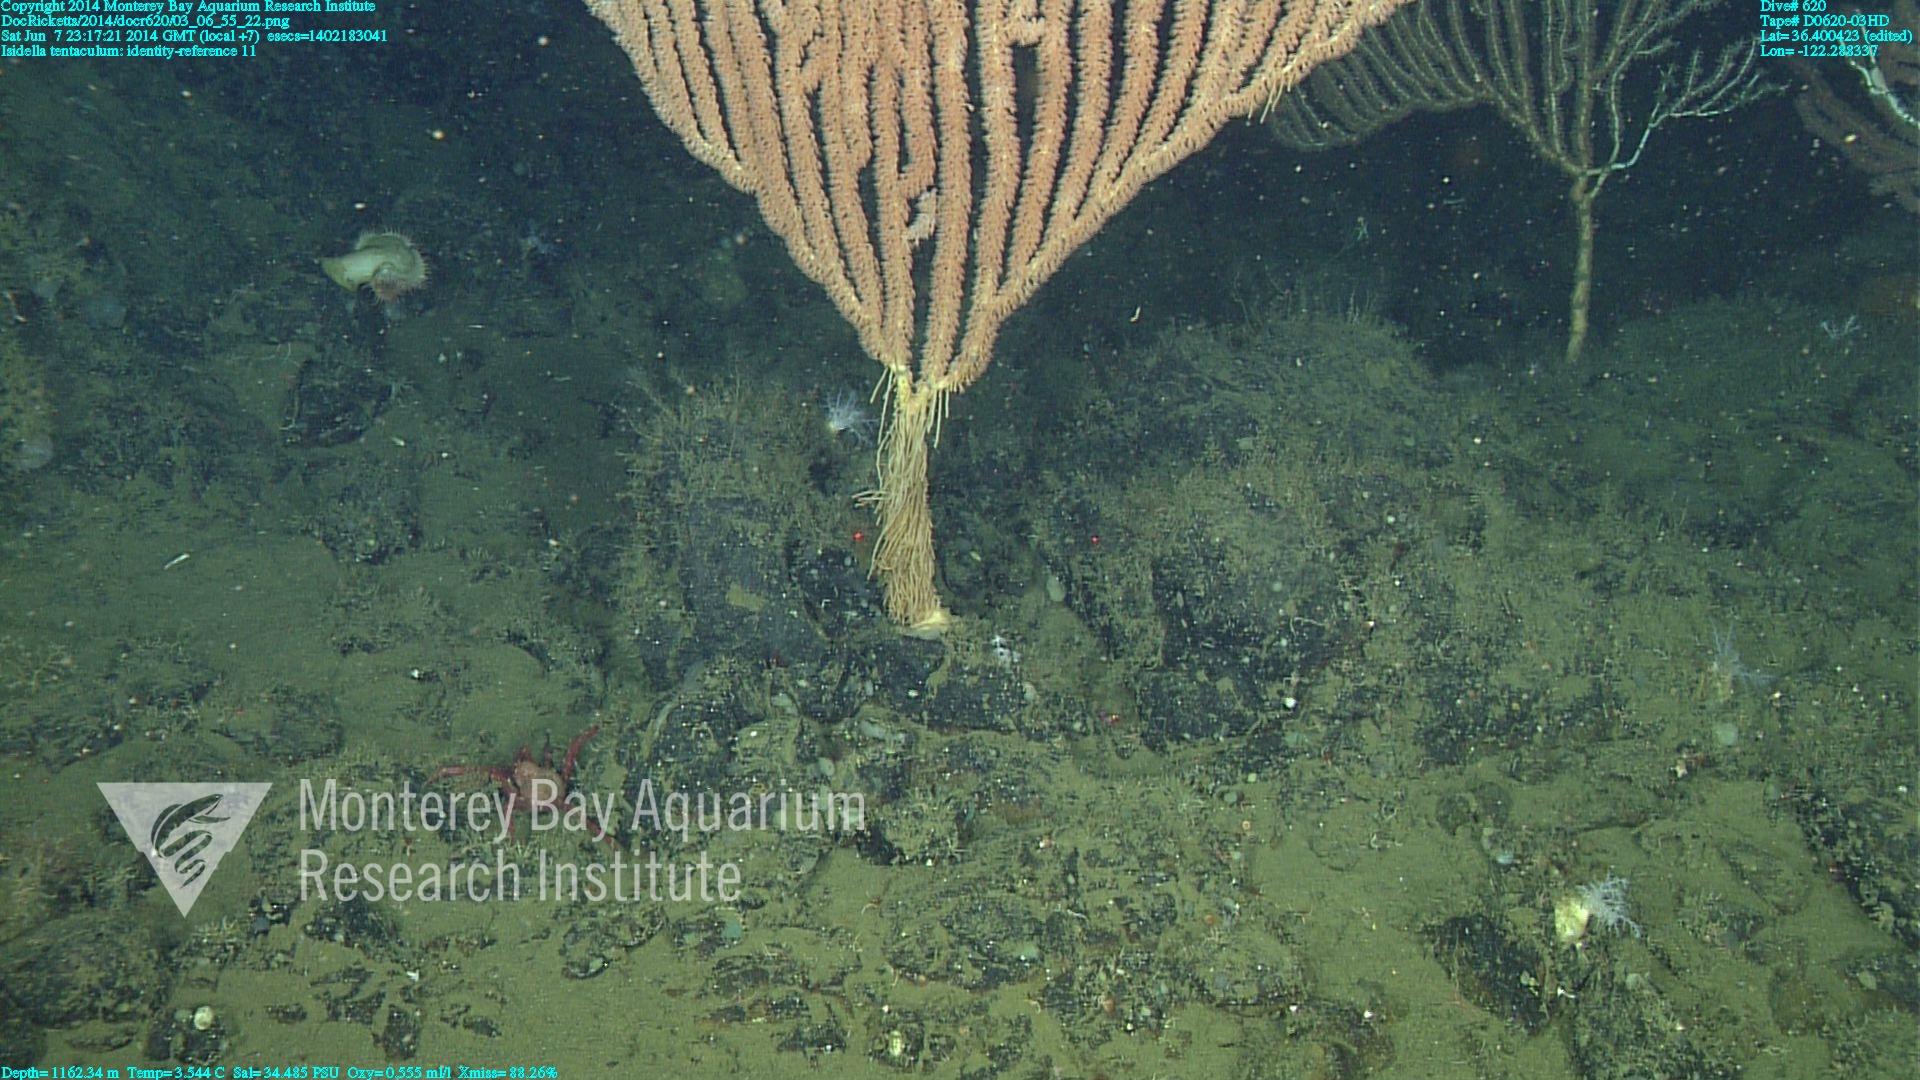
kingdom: Animalia
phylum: Cnidaria
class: Anthozoa
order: Scleralcyonacea
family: Keratoisididae
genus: Isidella
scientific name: Isidella tentaculum
